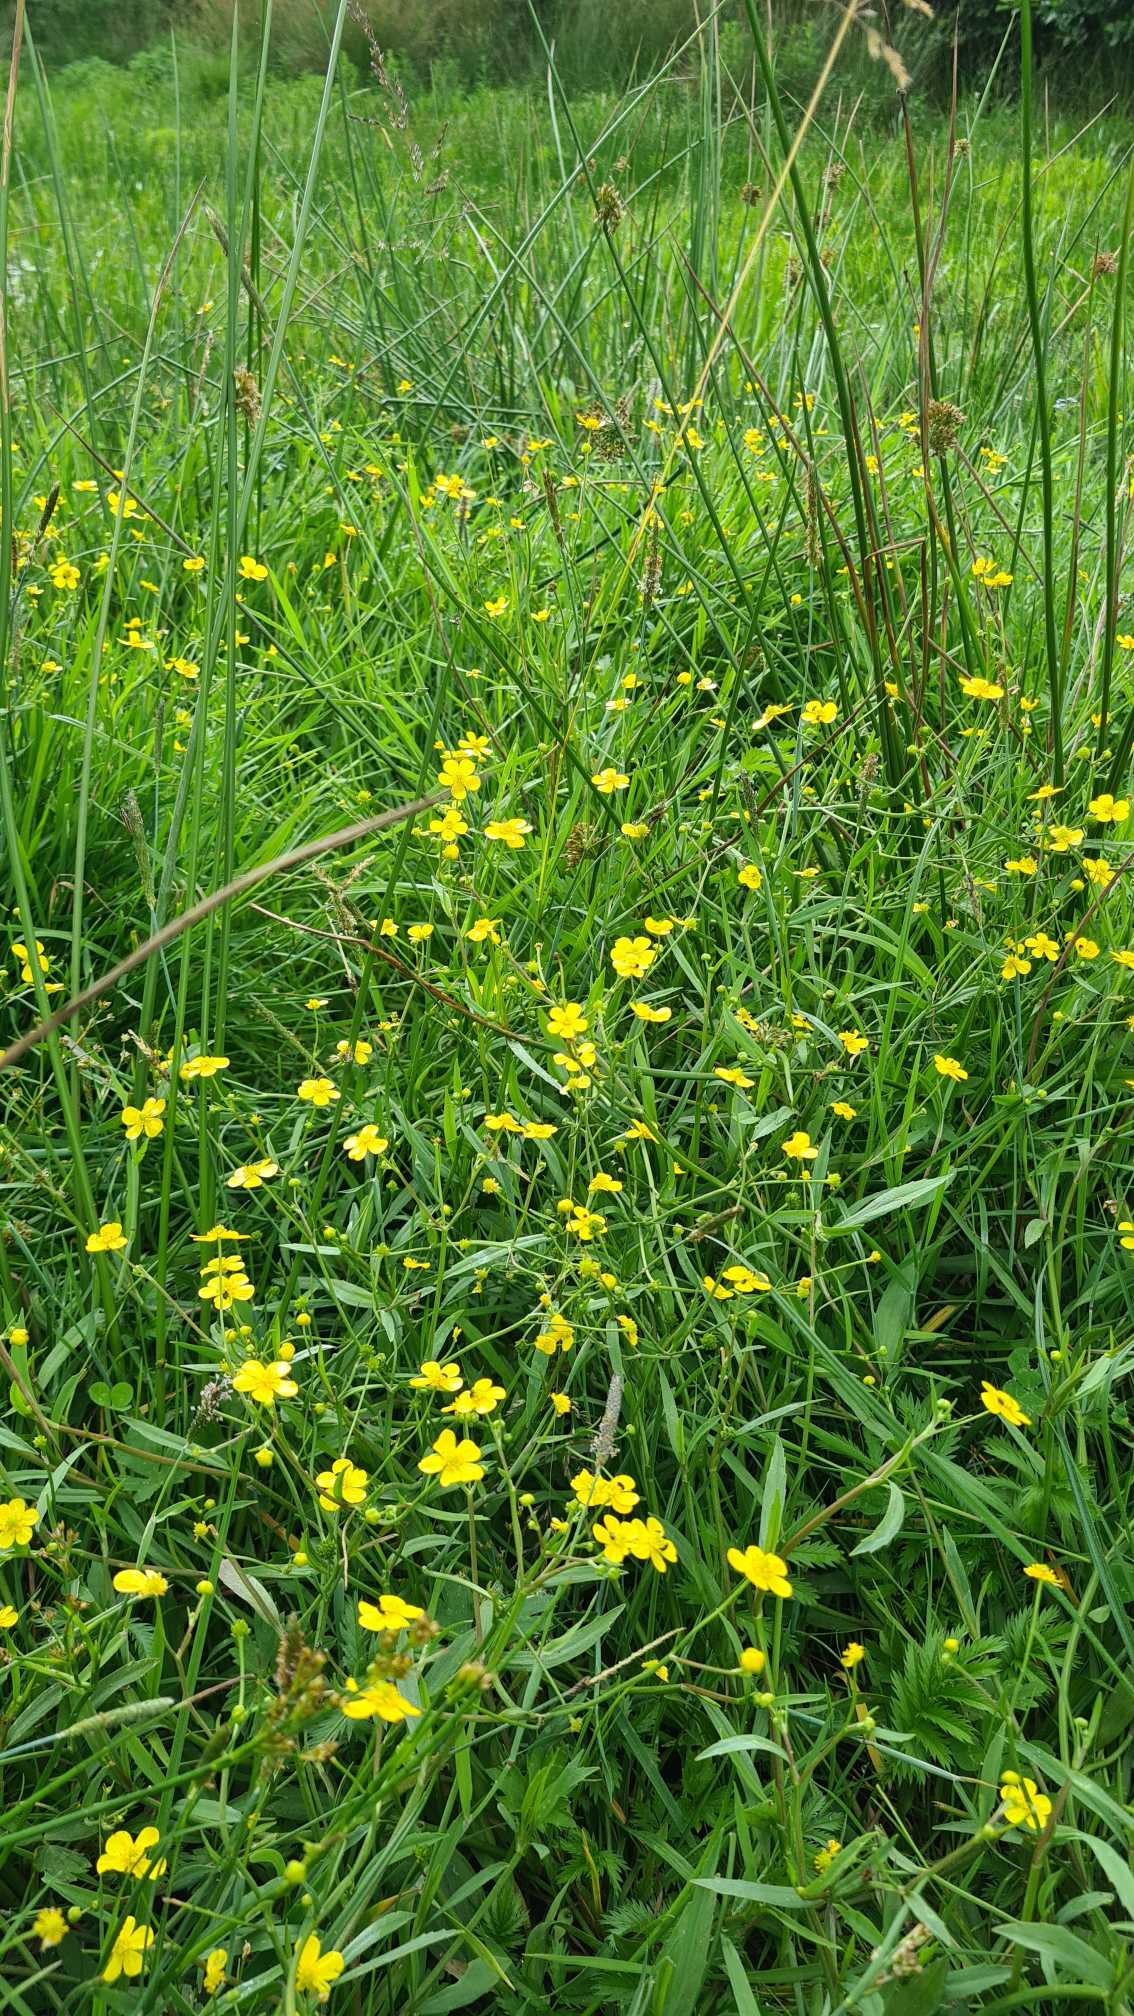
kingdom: Plantae
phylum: Tracheophyta
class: Magnoliopsida
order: Ranunculales
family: Ranunculaceae
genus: Ranunculus
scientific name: Ranunculus flammula
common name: Kær-ranunkel
